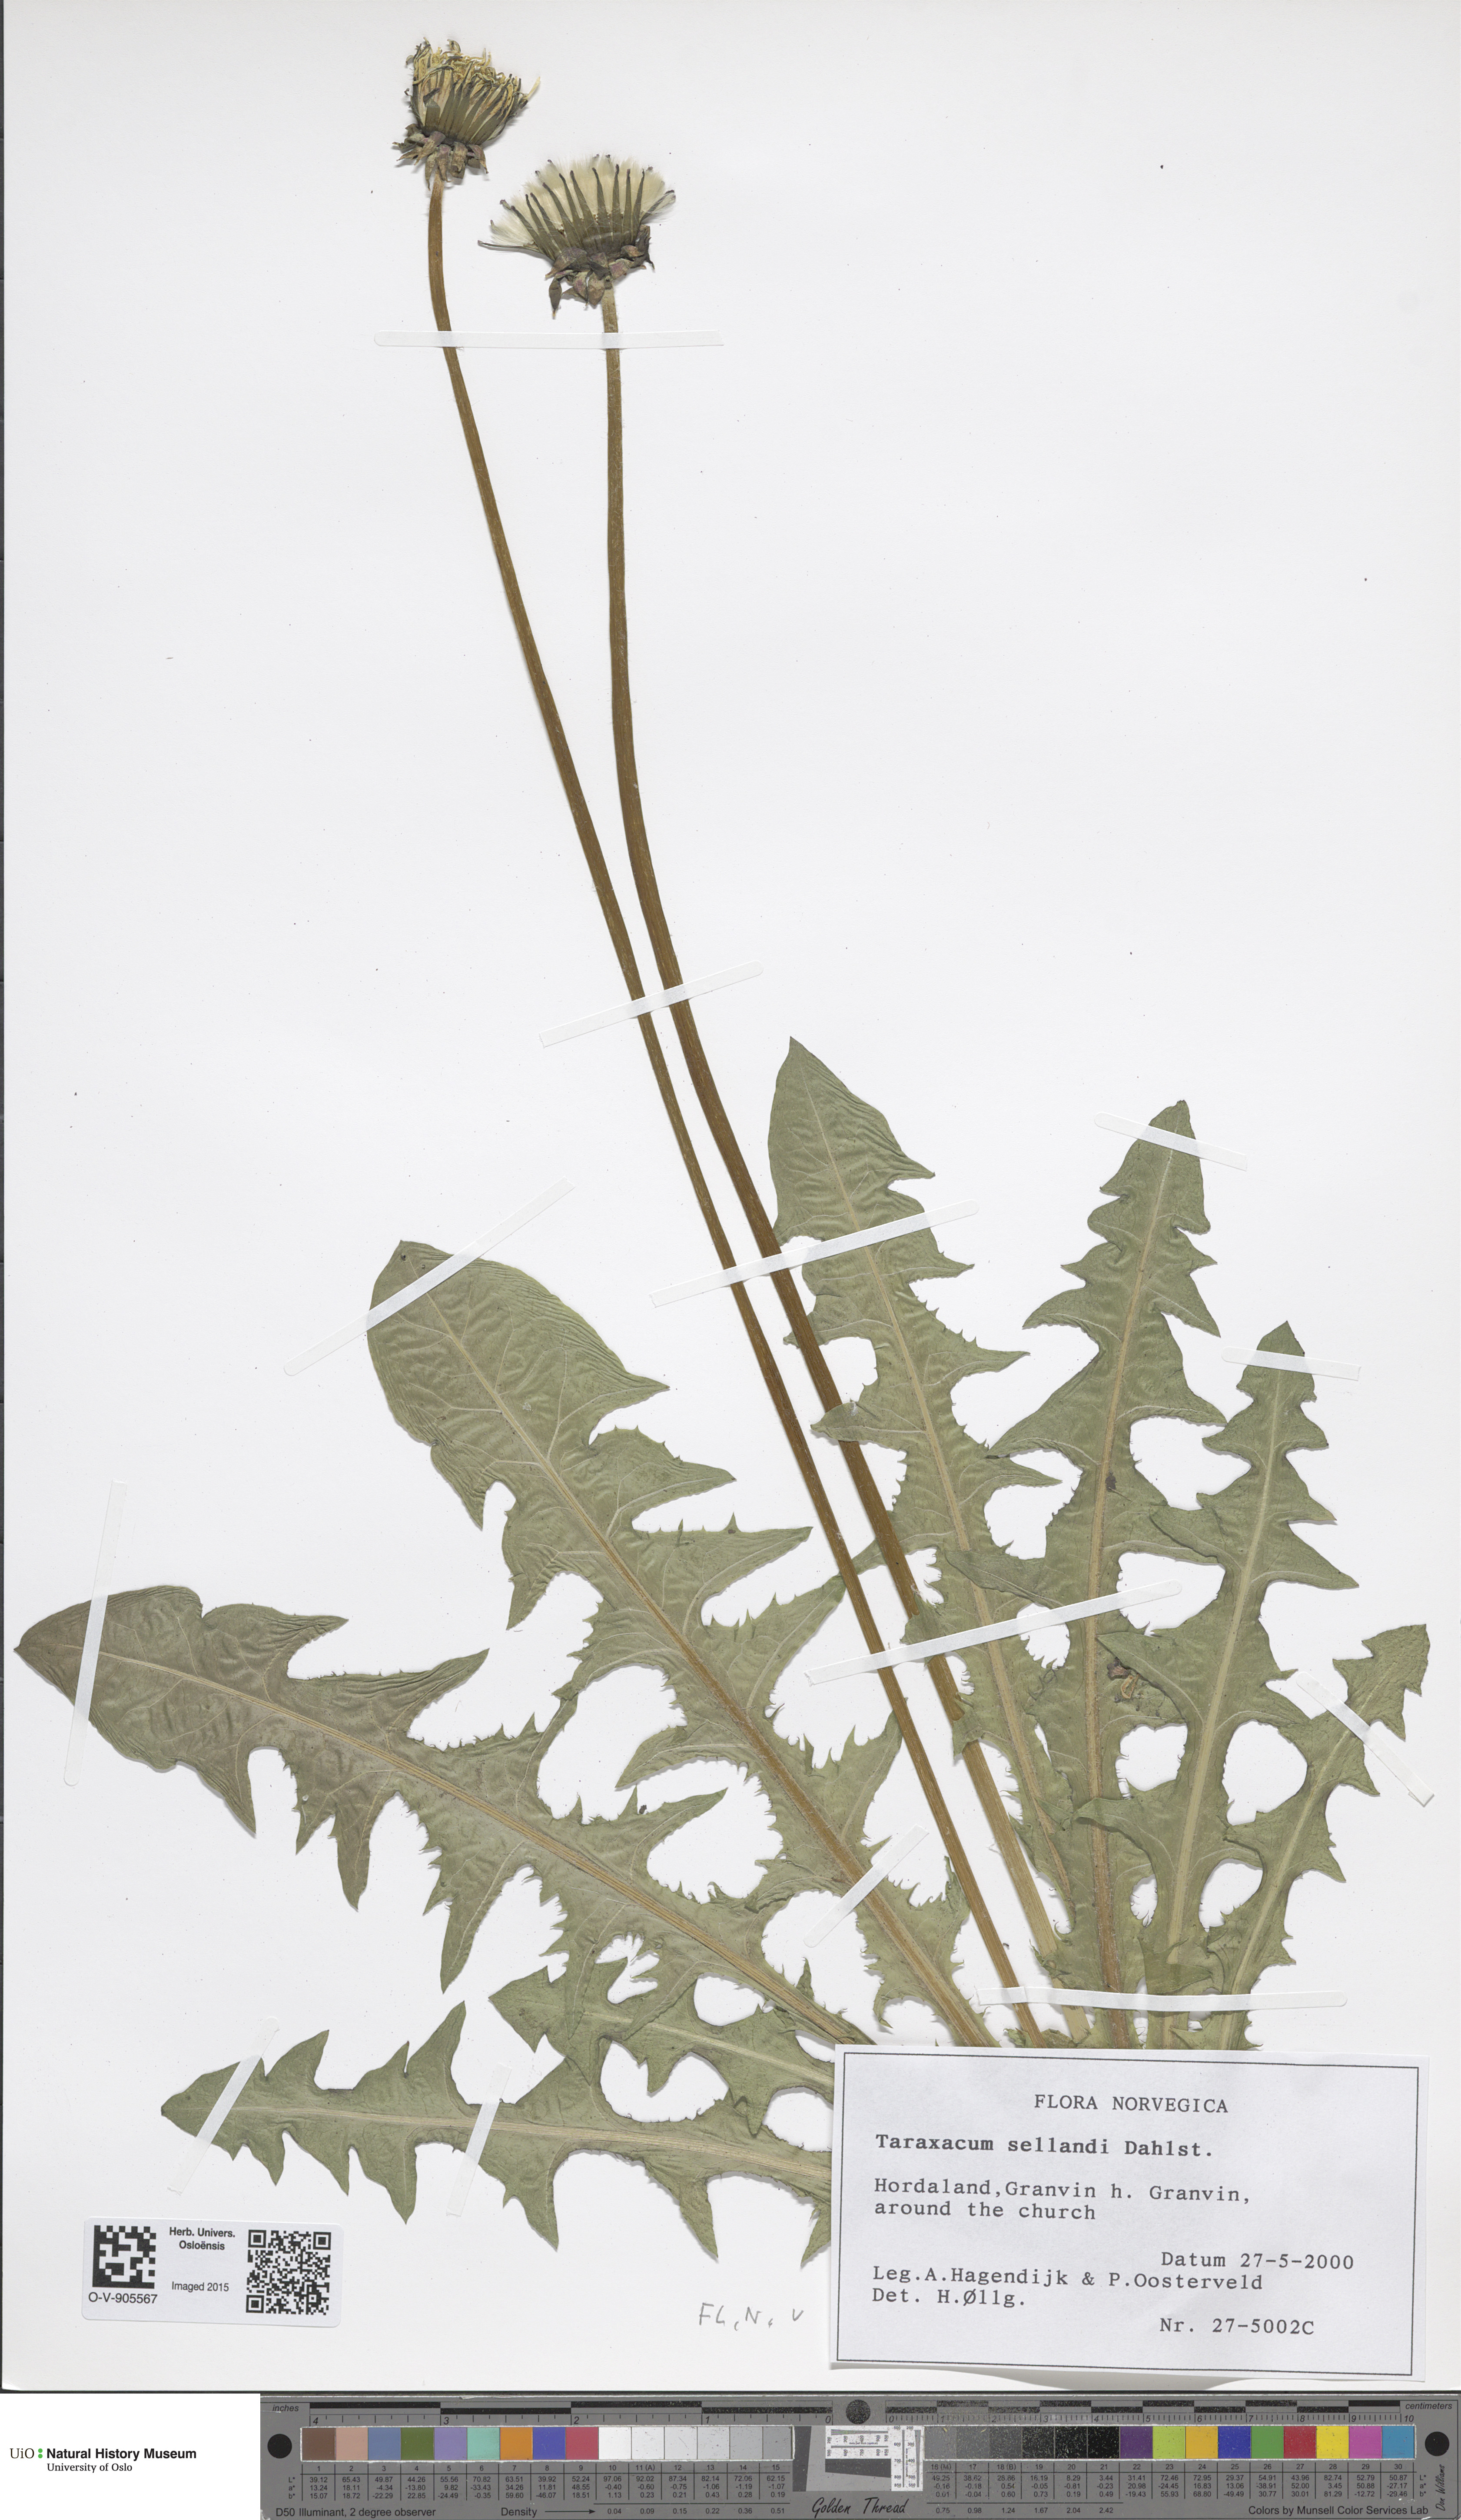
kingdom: Plantae
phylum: Tracheophyta
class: Magnoliopsida
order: Asterales
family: Asteraceae
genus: Taraxacum
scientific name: Taraxacum sellandii
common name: Selland's dandelion
